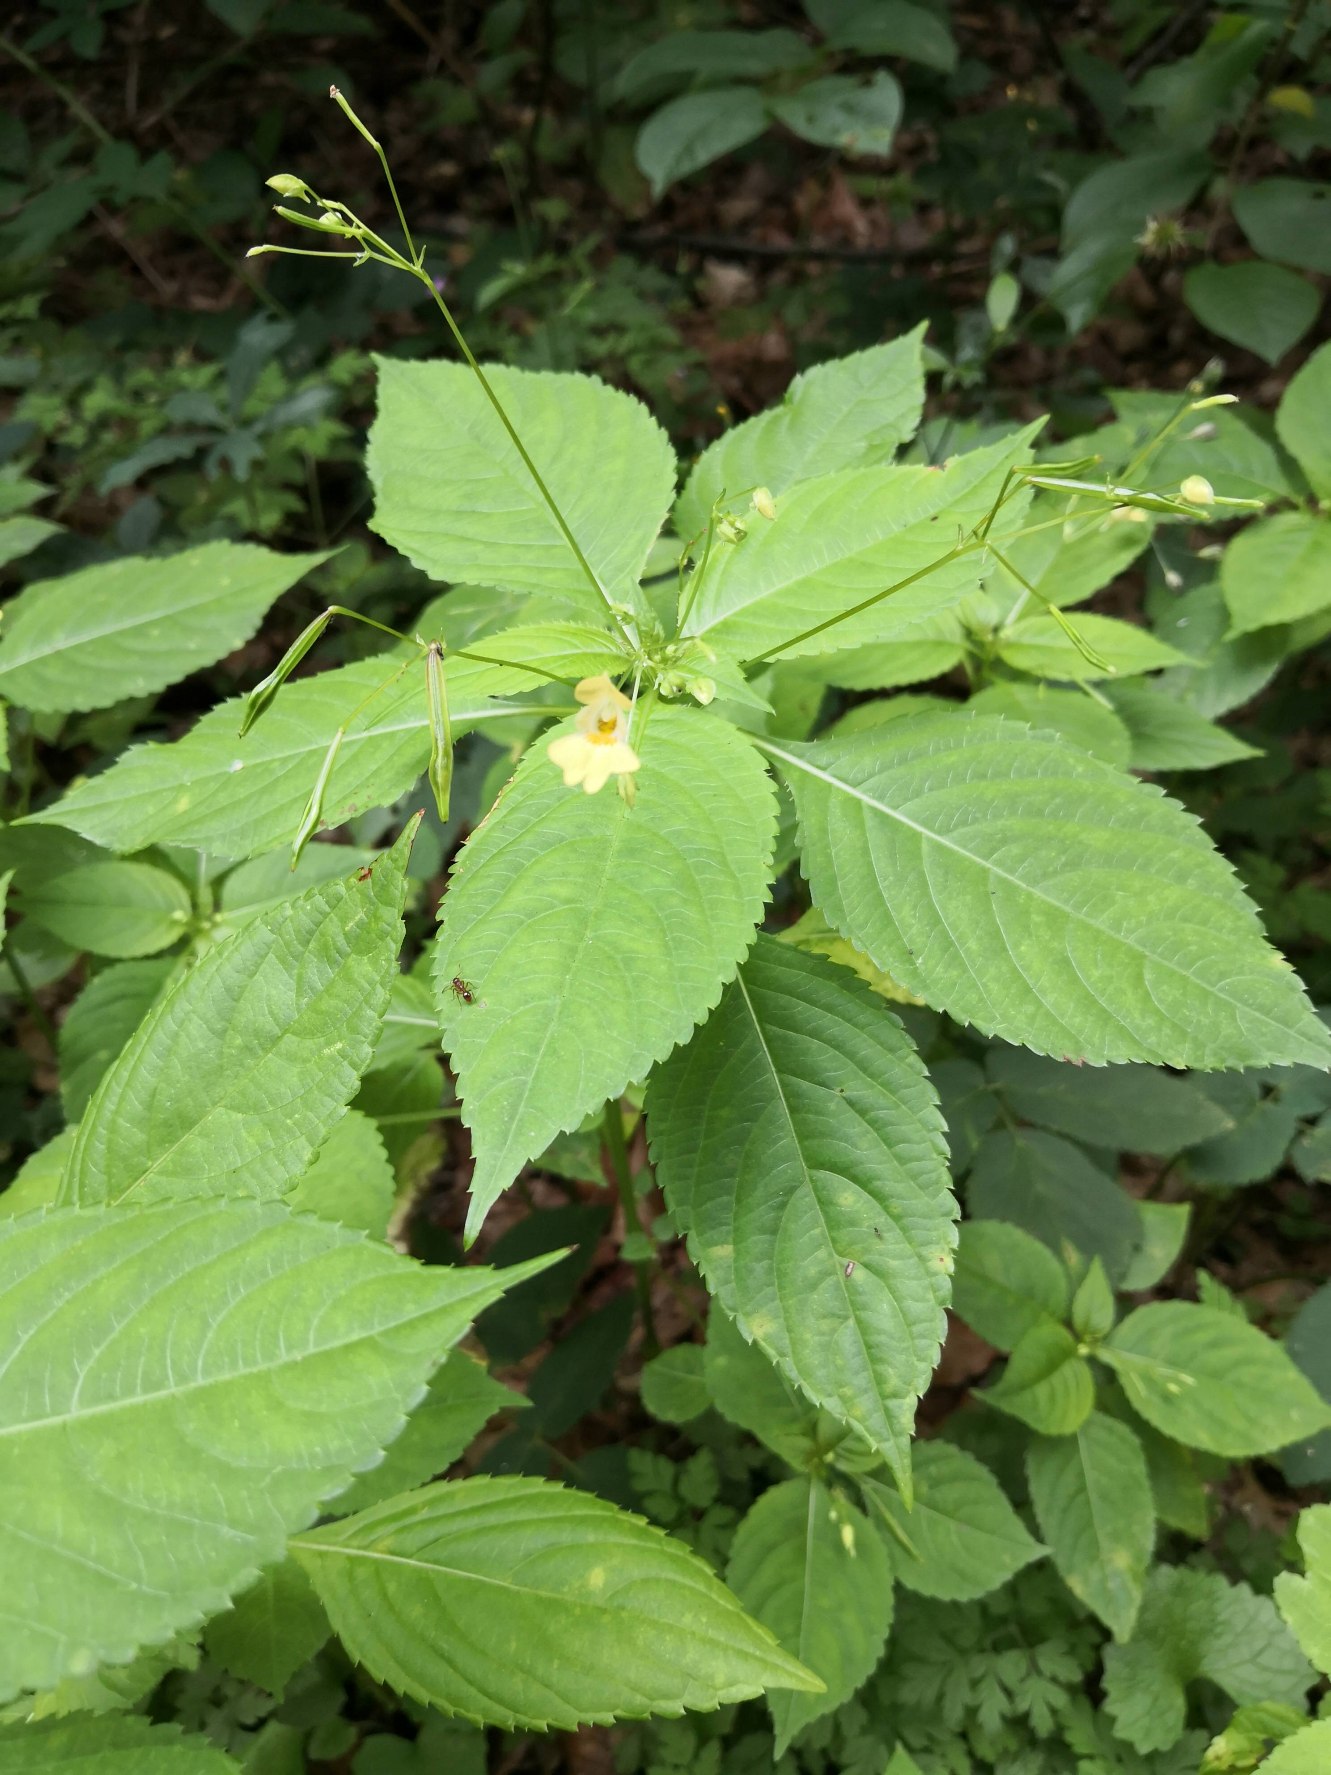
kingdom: Plantae
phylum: Tracheophyta
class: Magnoliopsida
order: Ericales
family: Balsaminaceae
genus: Impatiens
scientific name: Impatiens parviflora
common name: Småblomstret balsamin
